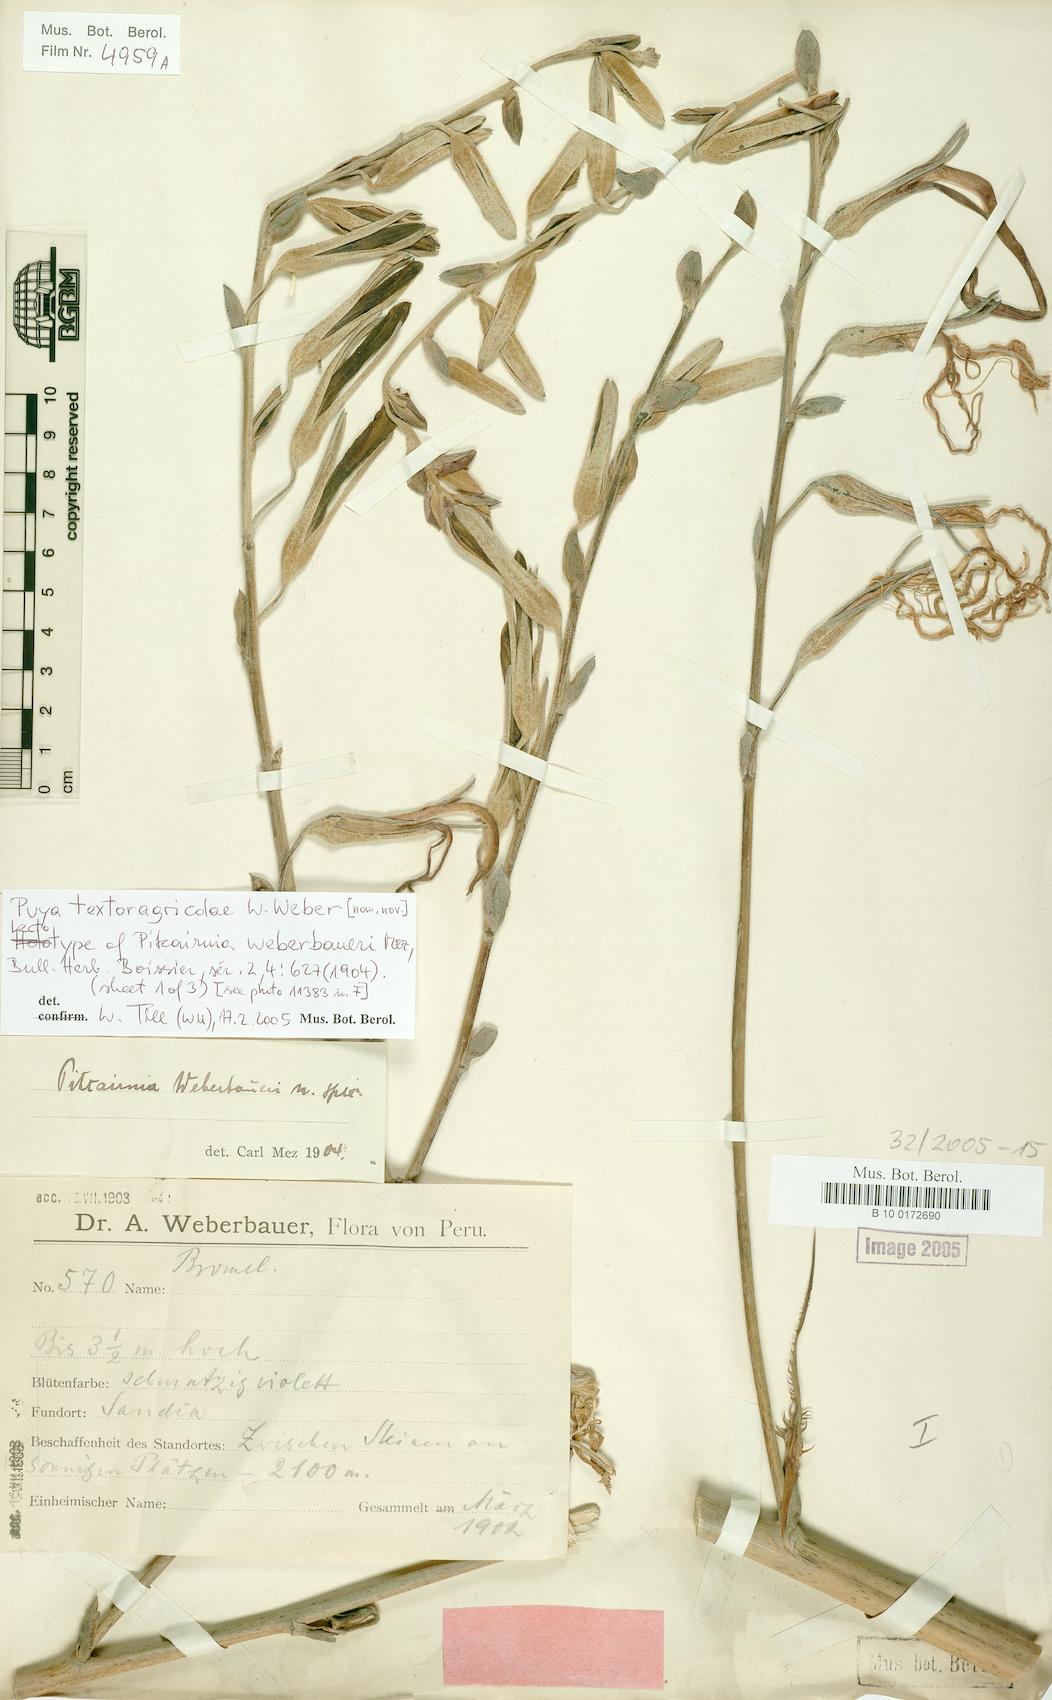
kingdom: Plantae
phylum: Tracheophyta
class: Liliopsida
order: Poales
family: Bromeliaceae
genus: Puya
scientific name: Puya textoragicolae
